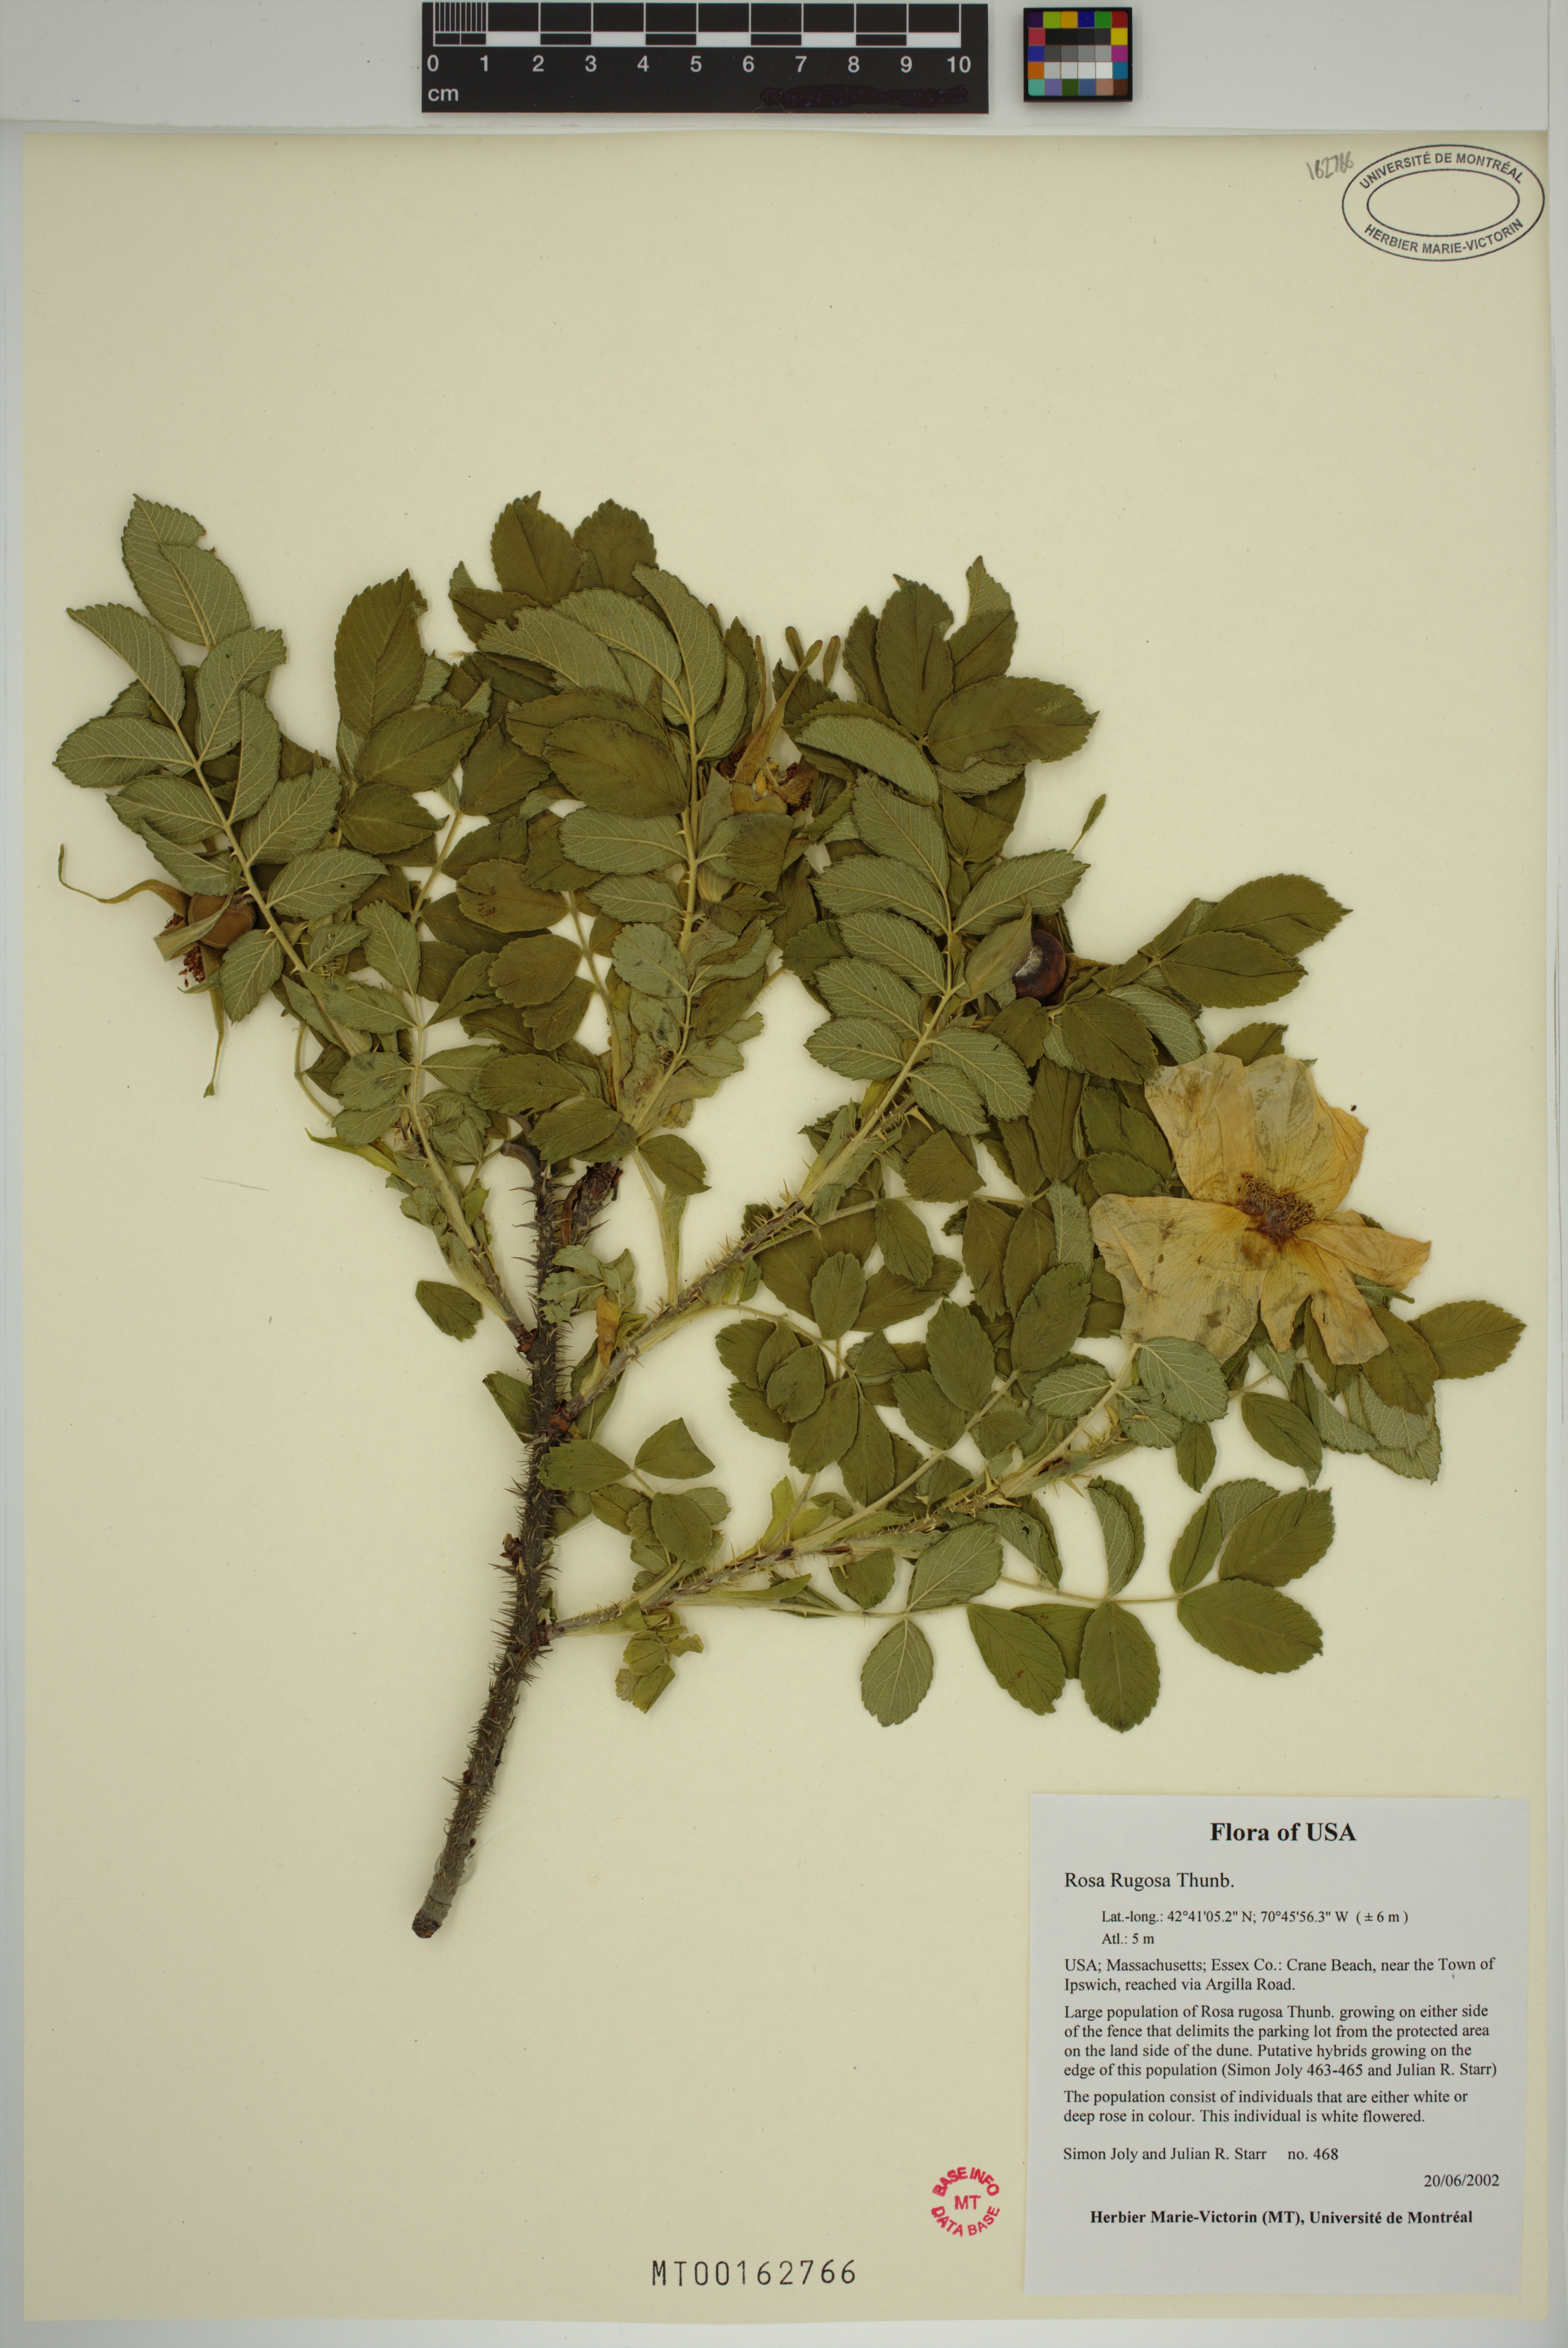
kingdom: Plantae
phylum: Tracheophyta
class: Magnoliopsida
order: Rosales
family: Rosaceae
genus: Rosa
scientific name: Rosa rugosa
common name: Japanese rose
